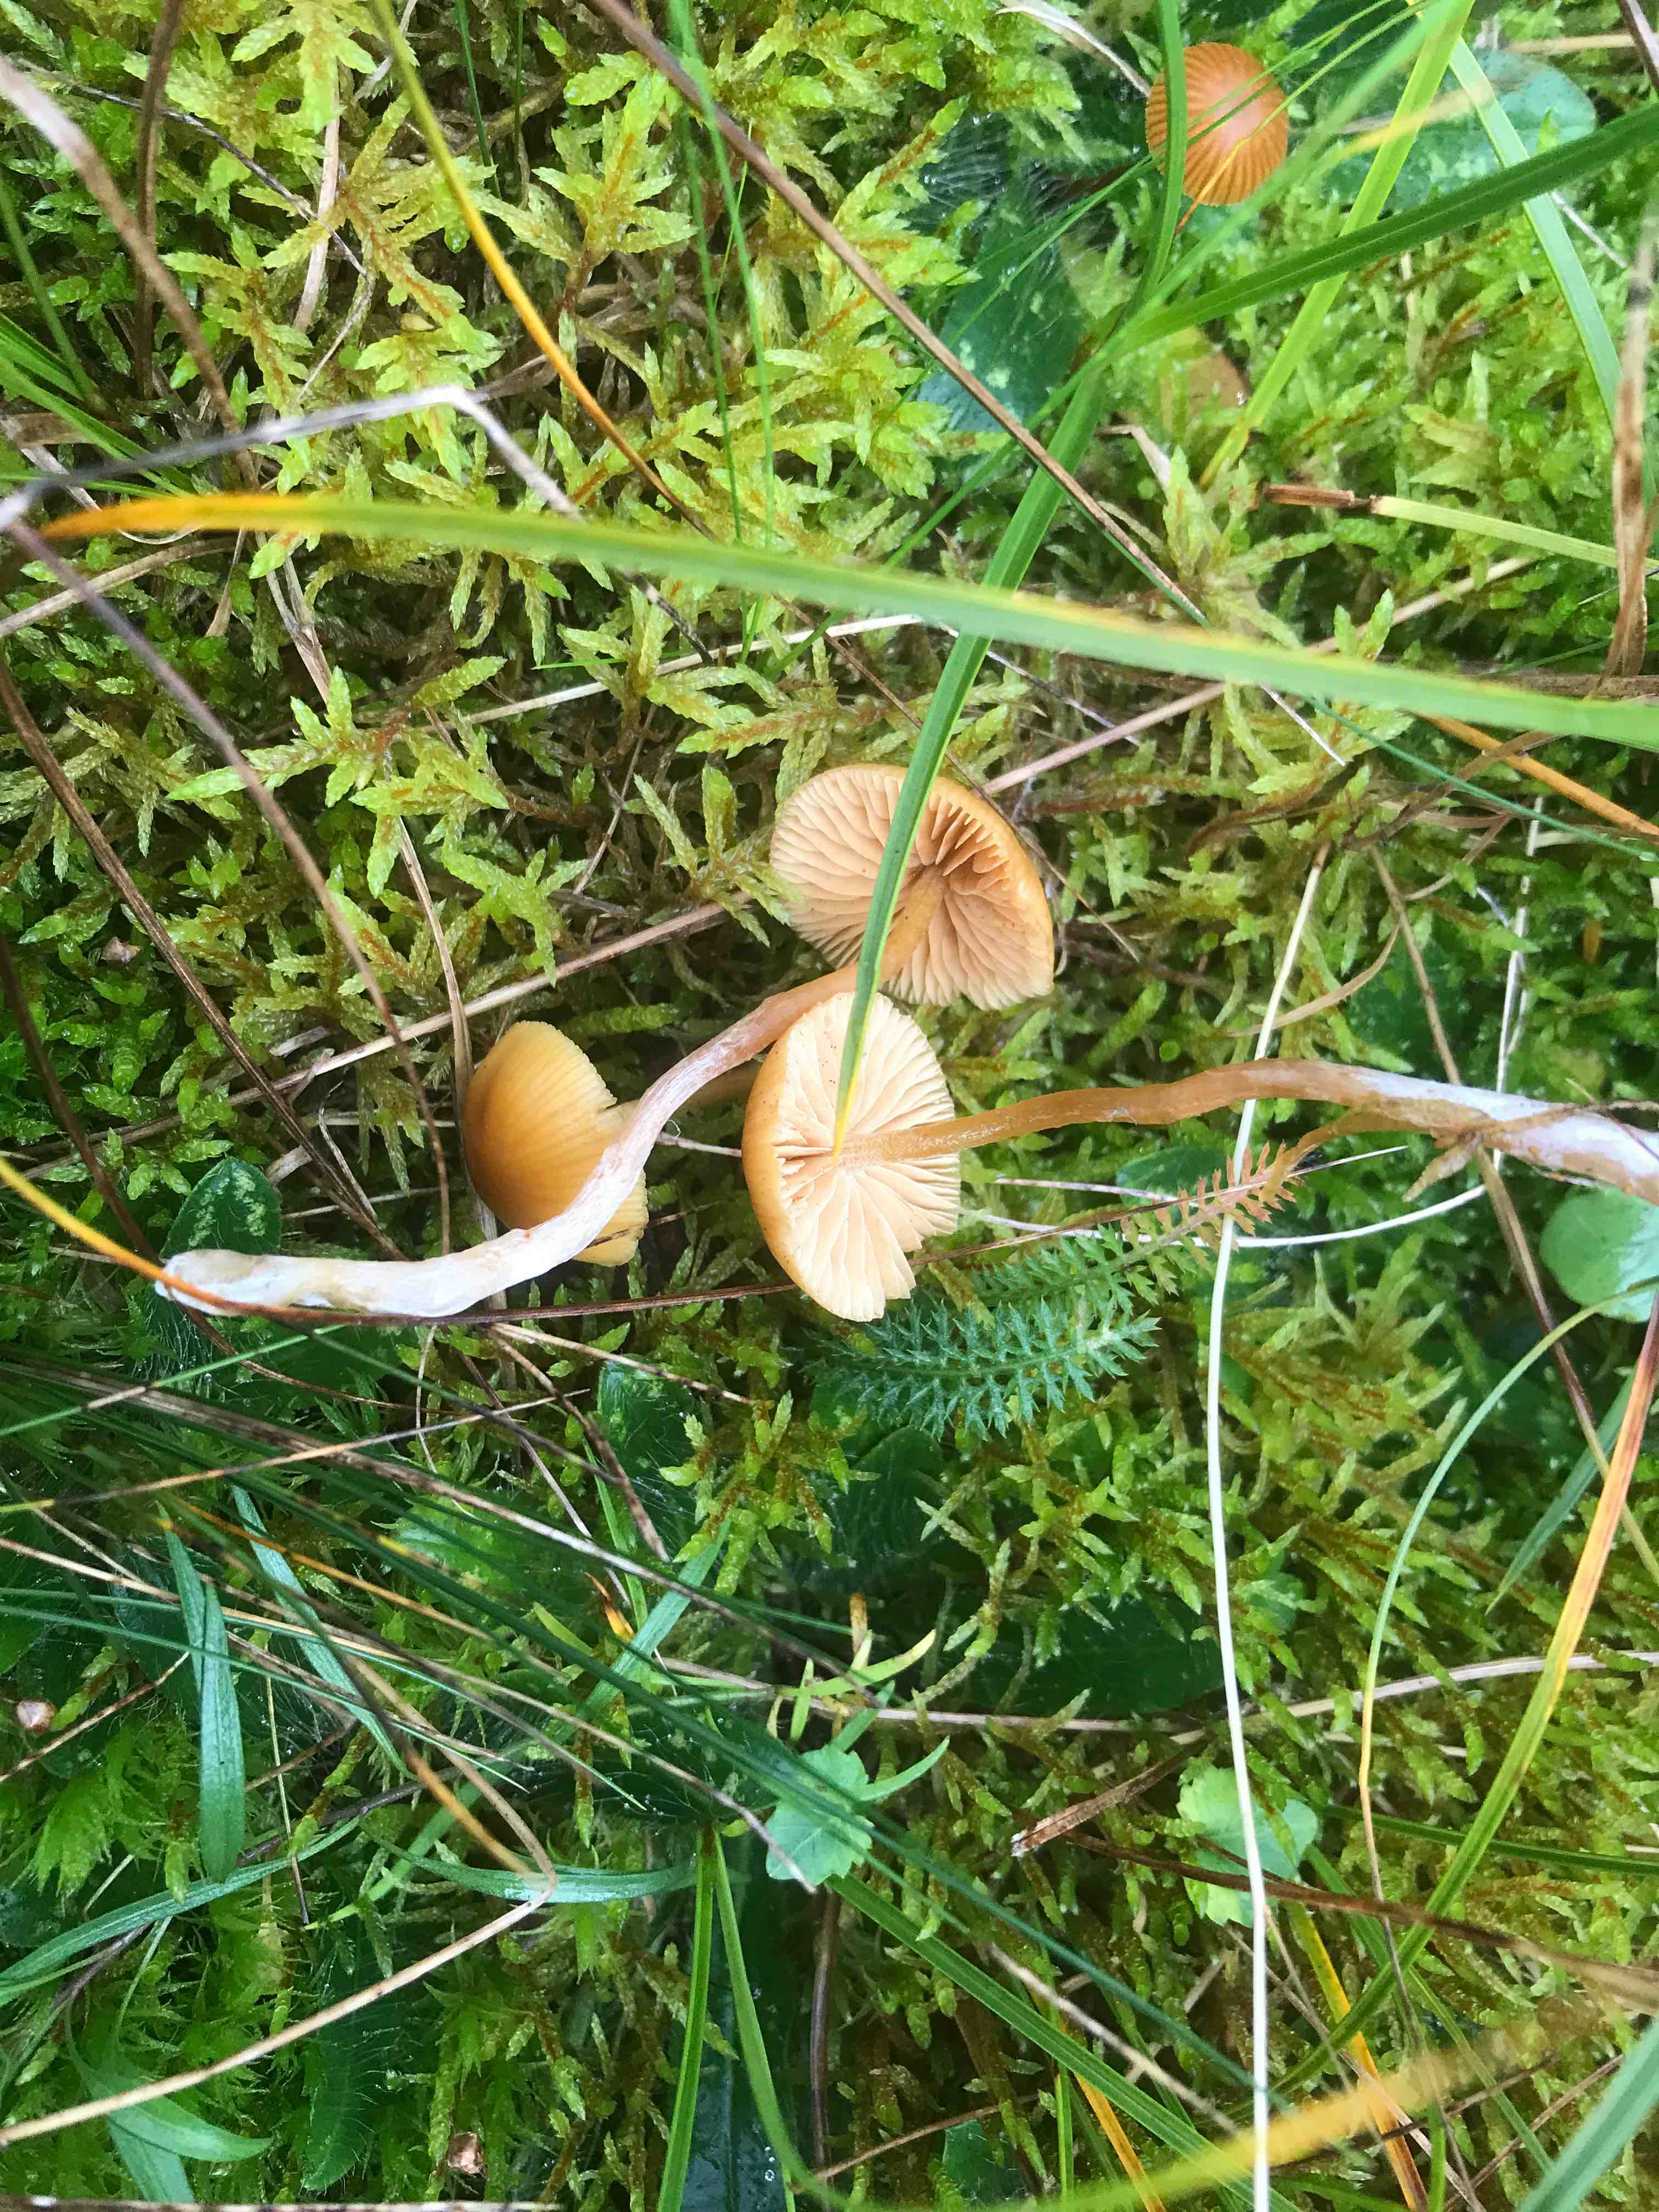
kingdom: Fungi
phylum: Basidiomycota
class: Agaricomycetes
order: Agaricales
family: Hymenogastraceae
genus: Galerina
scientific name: Galerina
